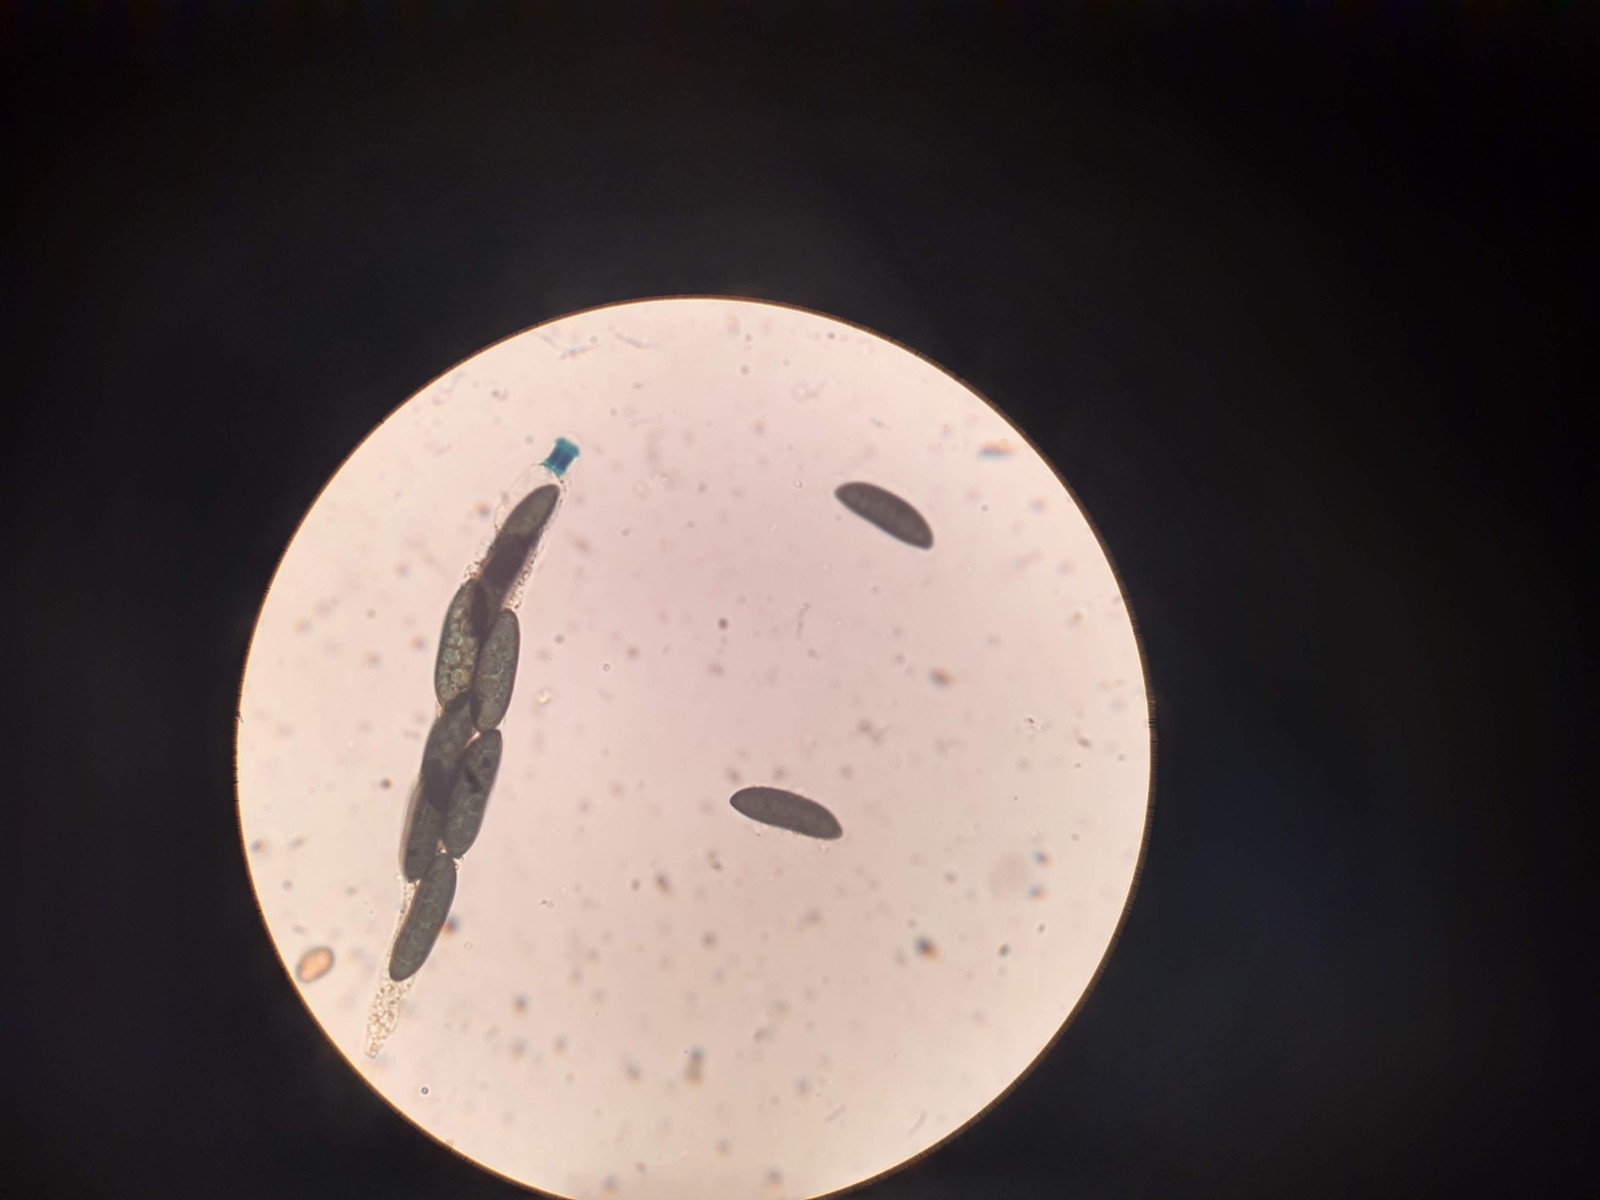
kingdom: Fungi
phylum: Ascomycota
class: Sordariomycetes
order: Xylariales
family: Xylariaceae
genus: Rosellinia
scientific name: Rosellinia marcucciana
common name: måtteløs kulkaviar
